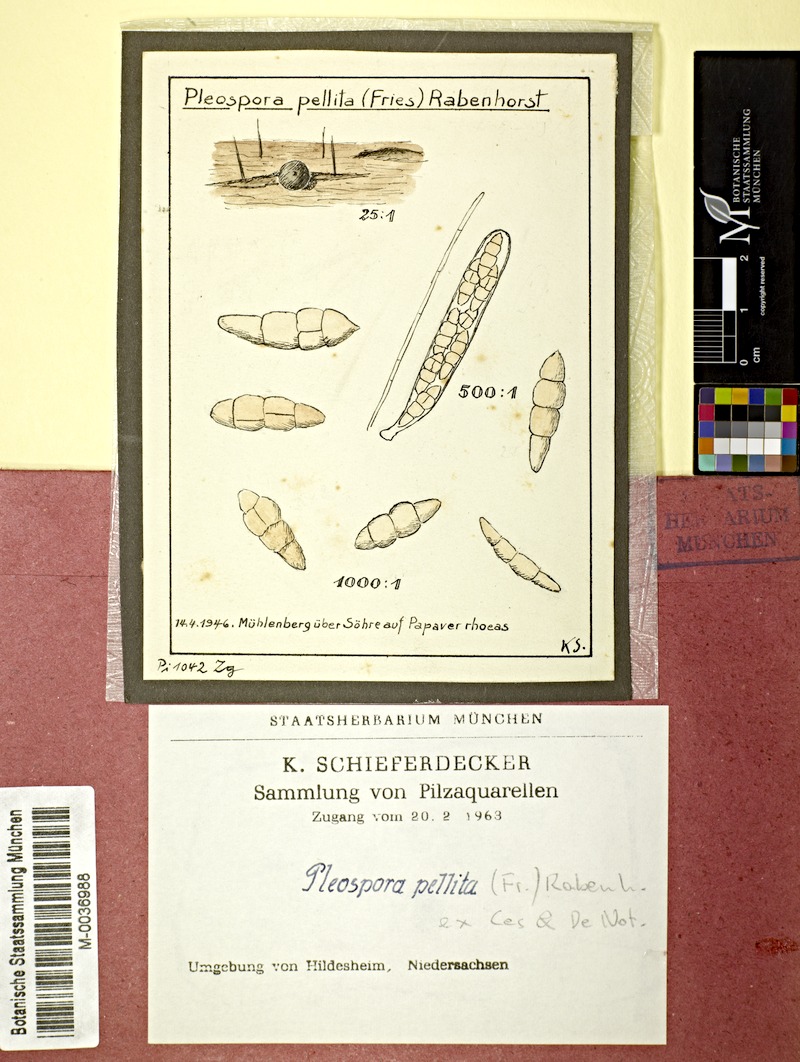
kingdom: Plantae
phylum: Tracheophyta
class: Magnoliopsida
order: Ranunculales
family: Papaveraceae
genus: Papaver
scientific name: Papaver rhoeas
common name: Corn poppy
